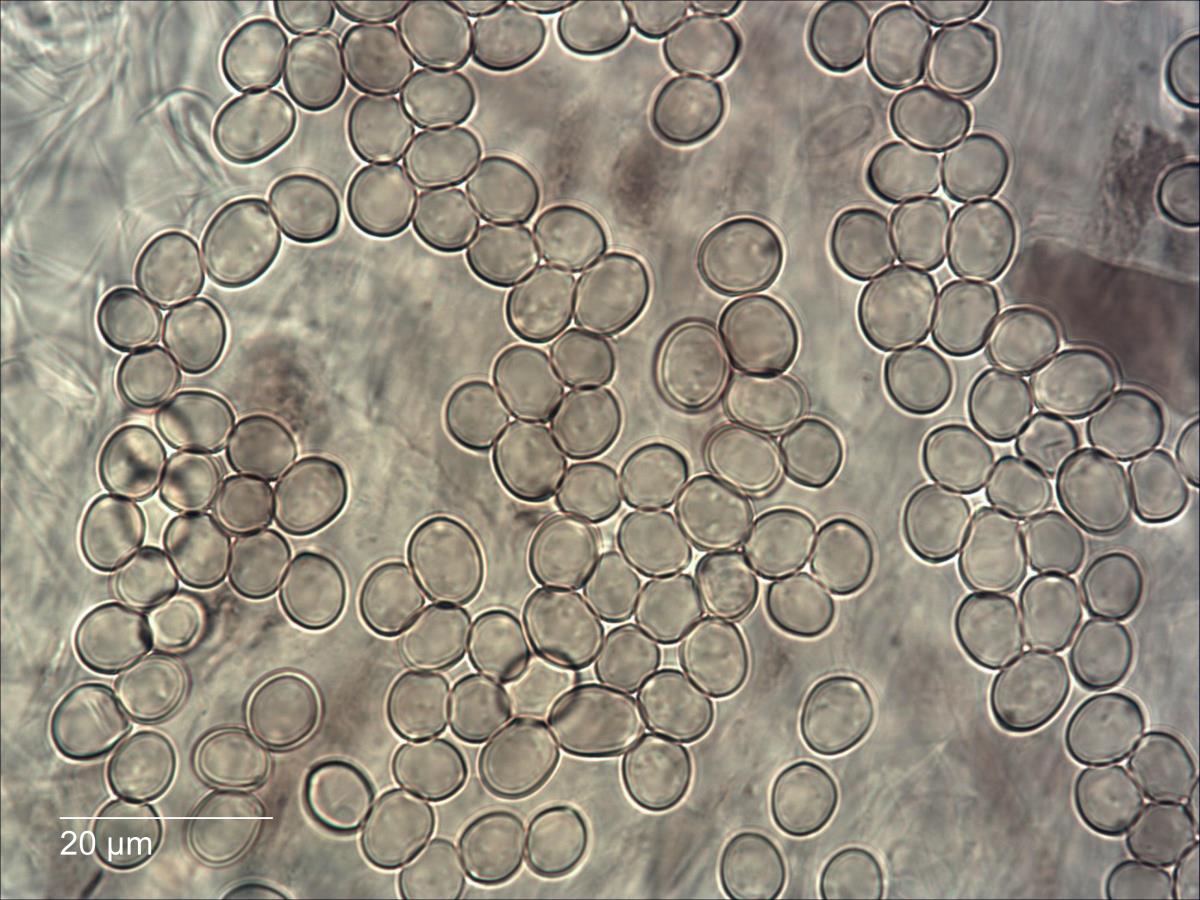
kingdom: Fungi
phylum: Basidiomycota
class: Agaricomycetes
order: Agaricales
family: Pluteaceae
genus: Pluteus
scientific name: Pluteus
